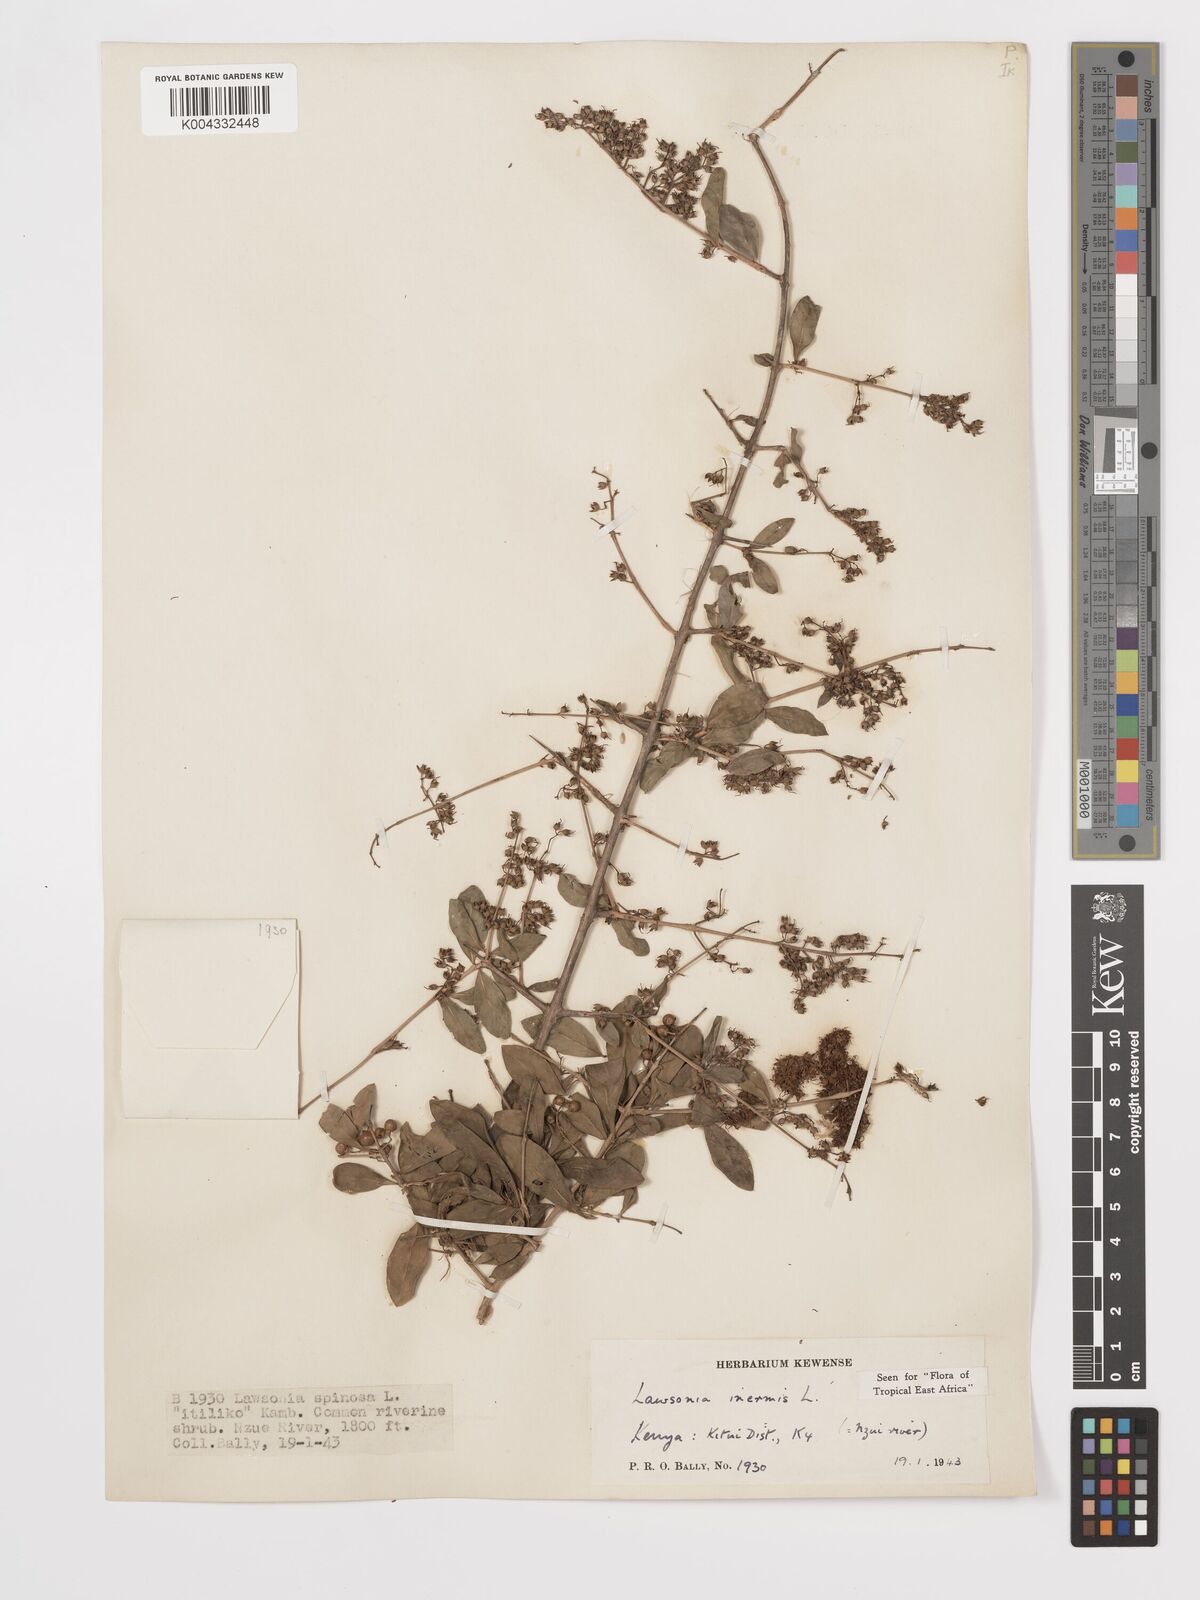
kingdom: Plantae
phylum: Tracheophyta
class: Magnoliopsida
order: Myrtales
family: Lythraceae
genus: Lawsonia
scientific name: Lawsonia inermis
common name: Henna
